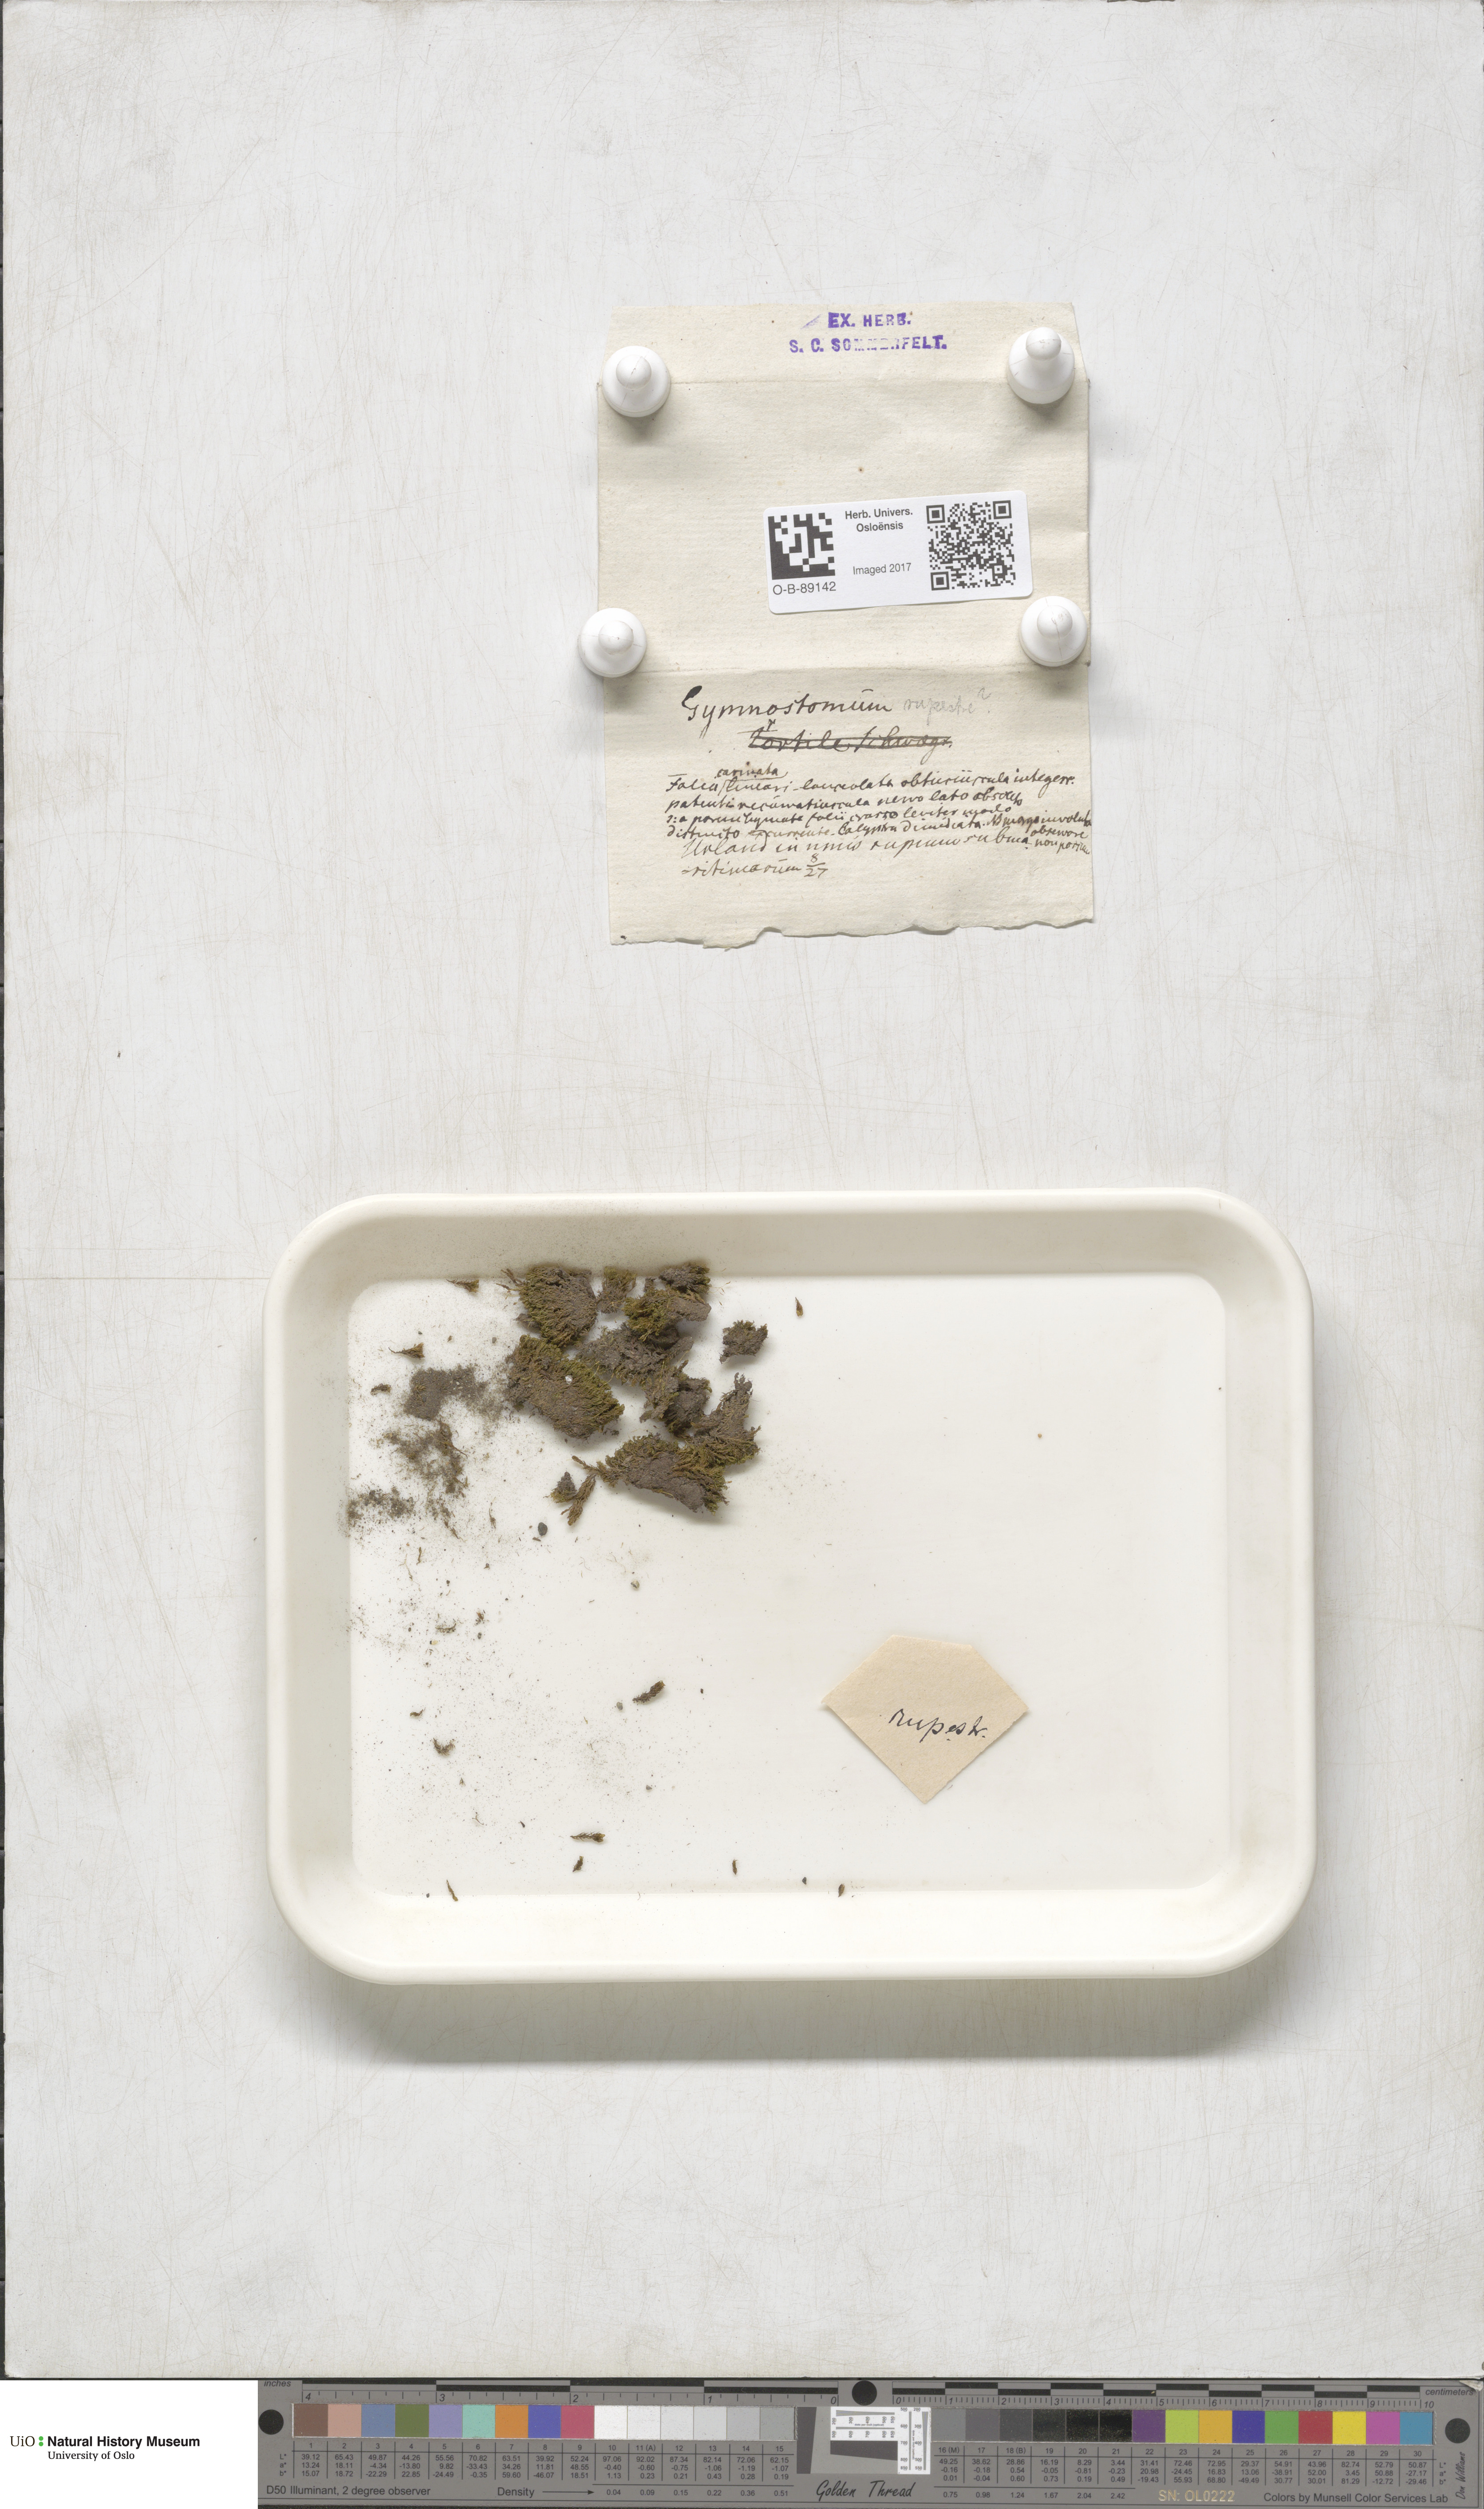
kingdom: Plantae
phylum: Bryophyta
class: Bryopsida
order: Pottiales
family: Pottiaceae
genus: Gymnostomum
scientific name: Gymnostomum aeruginosum
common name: Verdigris tufa-moss
